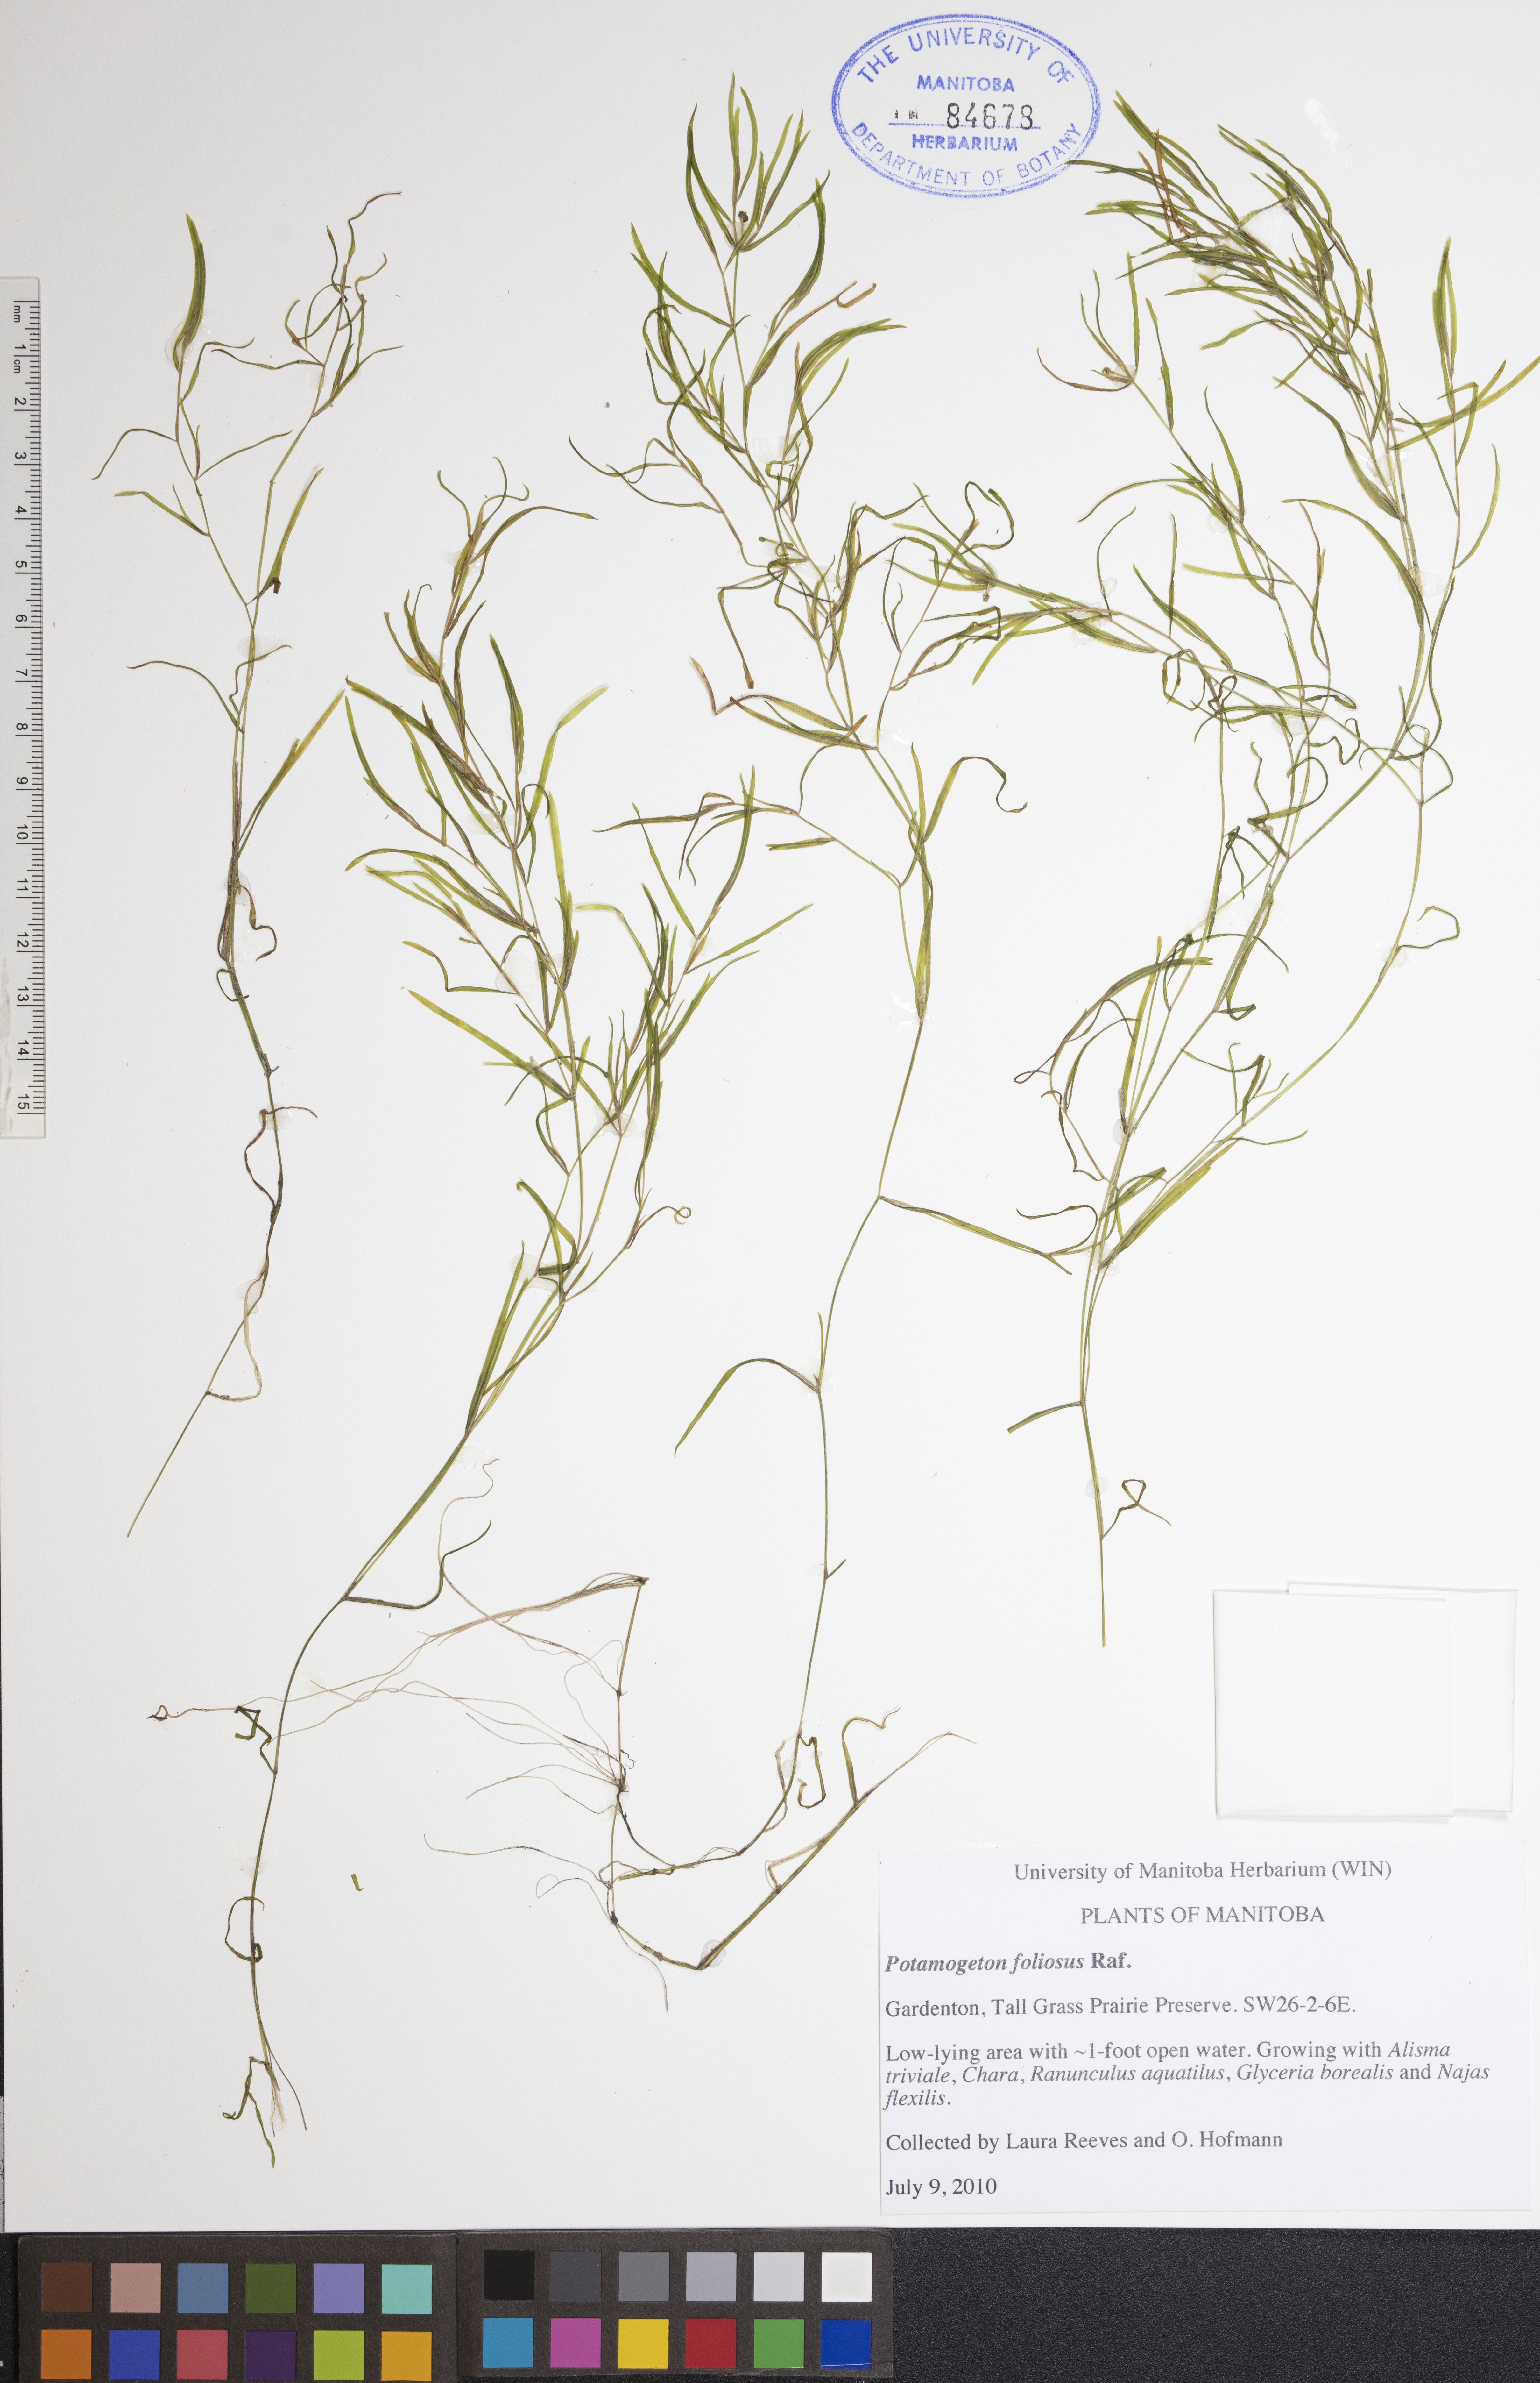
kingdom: Plantae
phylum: Tracheophyta
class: Liliopsida
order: Alismatales
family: Potamogetonaceae
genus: Potamogeton
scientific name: Potamogeton foliosus
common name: Leafy pondweed
